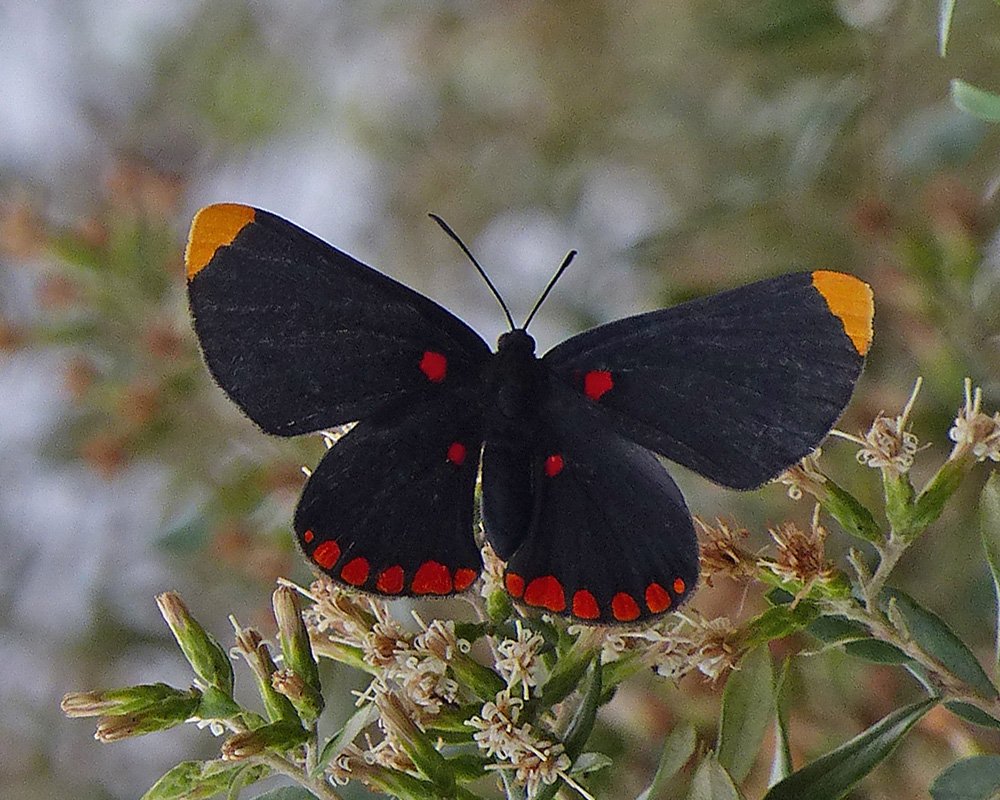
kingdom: Animalia
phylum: Arthropoda
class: Insecta
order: Lepidoptera
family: Lycaenidae
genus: Melanis
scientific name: Melanis pixe
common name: Red-bordered Pixie
